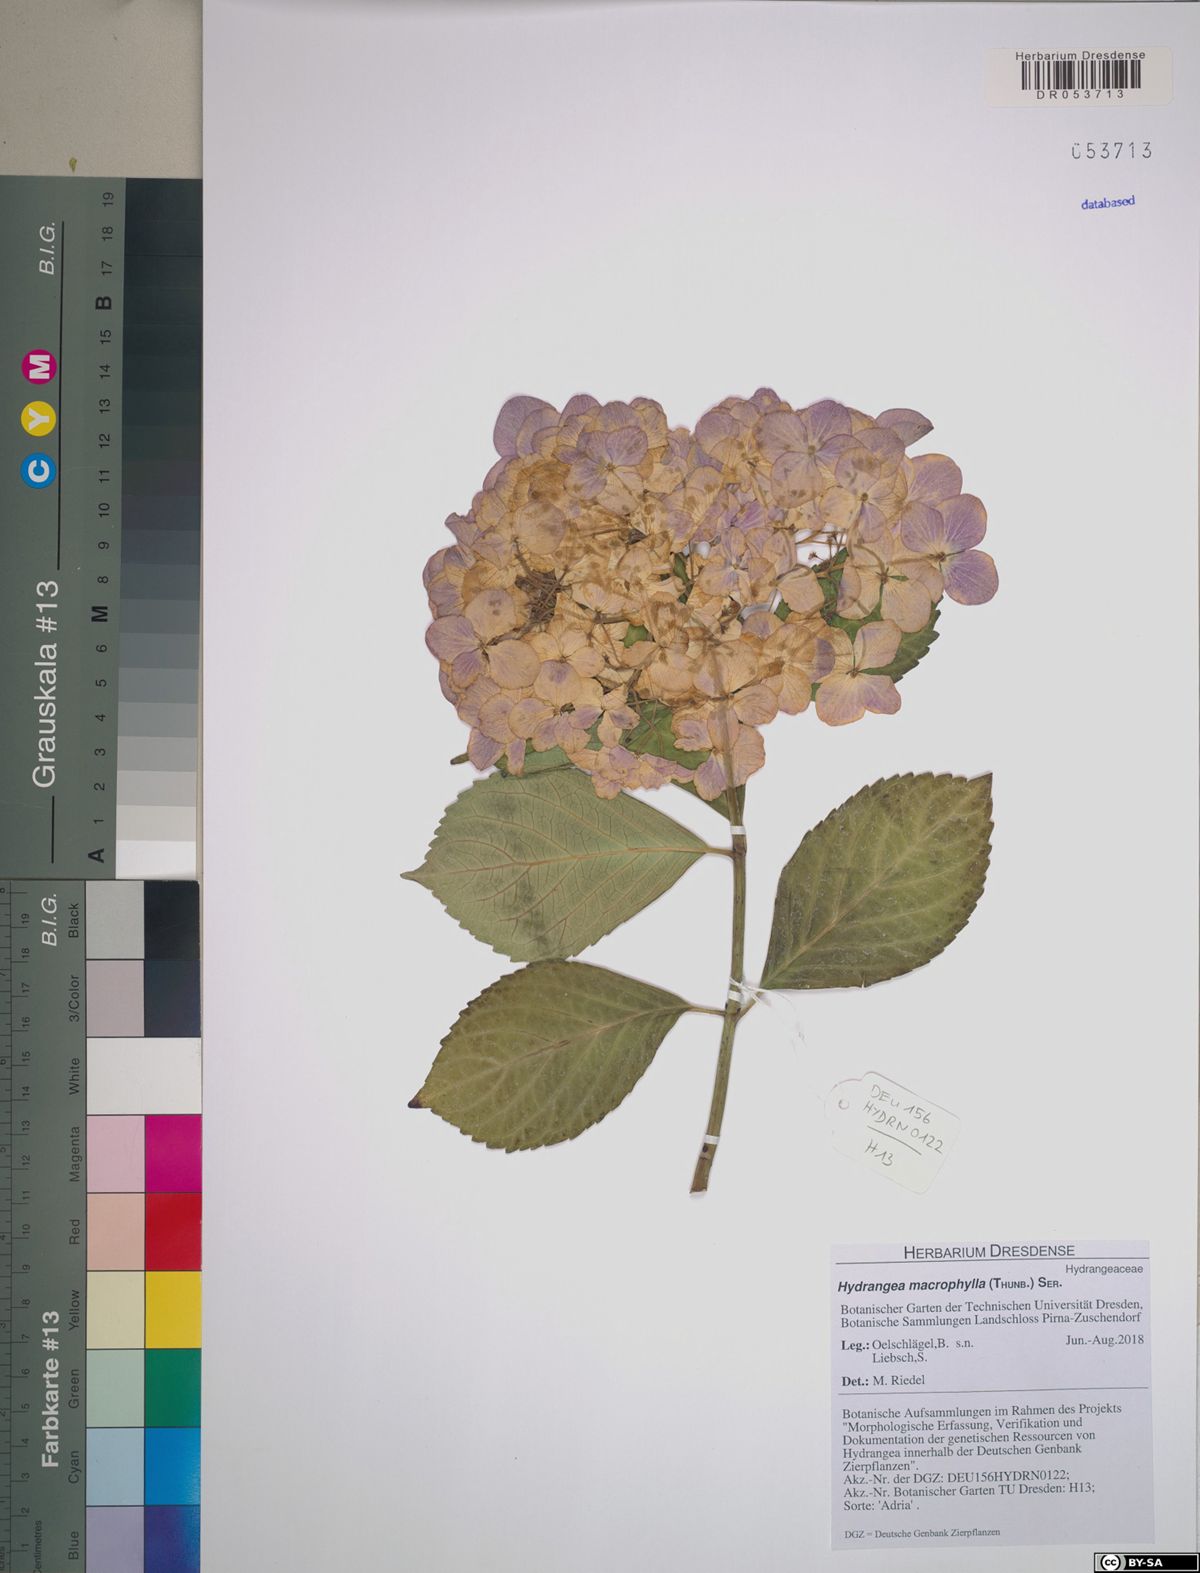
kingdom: Plantae
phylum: Tracheophyta
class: Magnoliopsida
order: Cornales
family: Hydrangeaceae
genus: Hydrangea
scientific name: Hydrangea macrophylla
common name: Hydrangea
